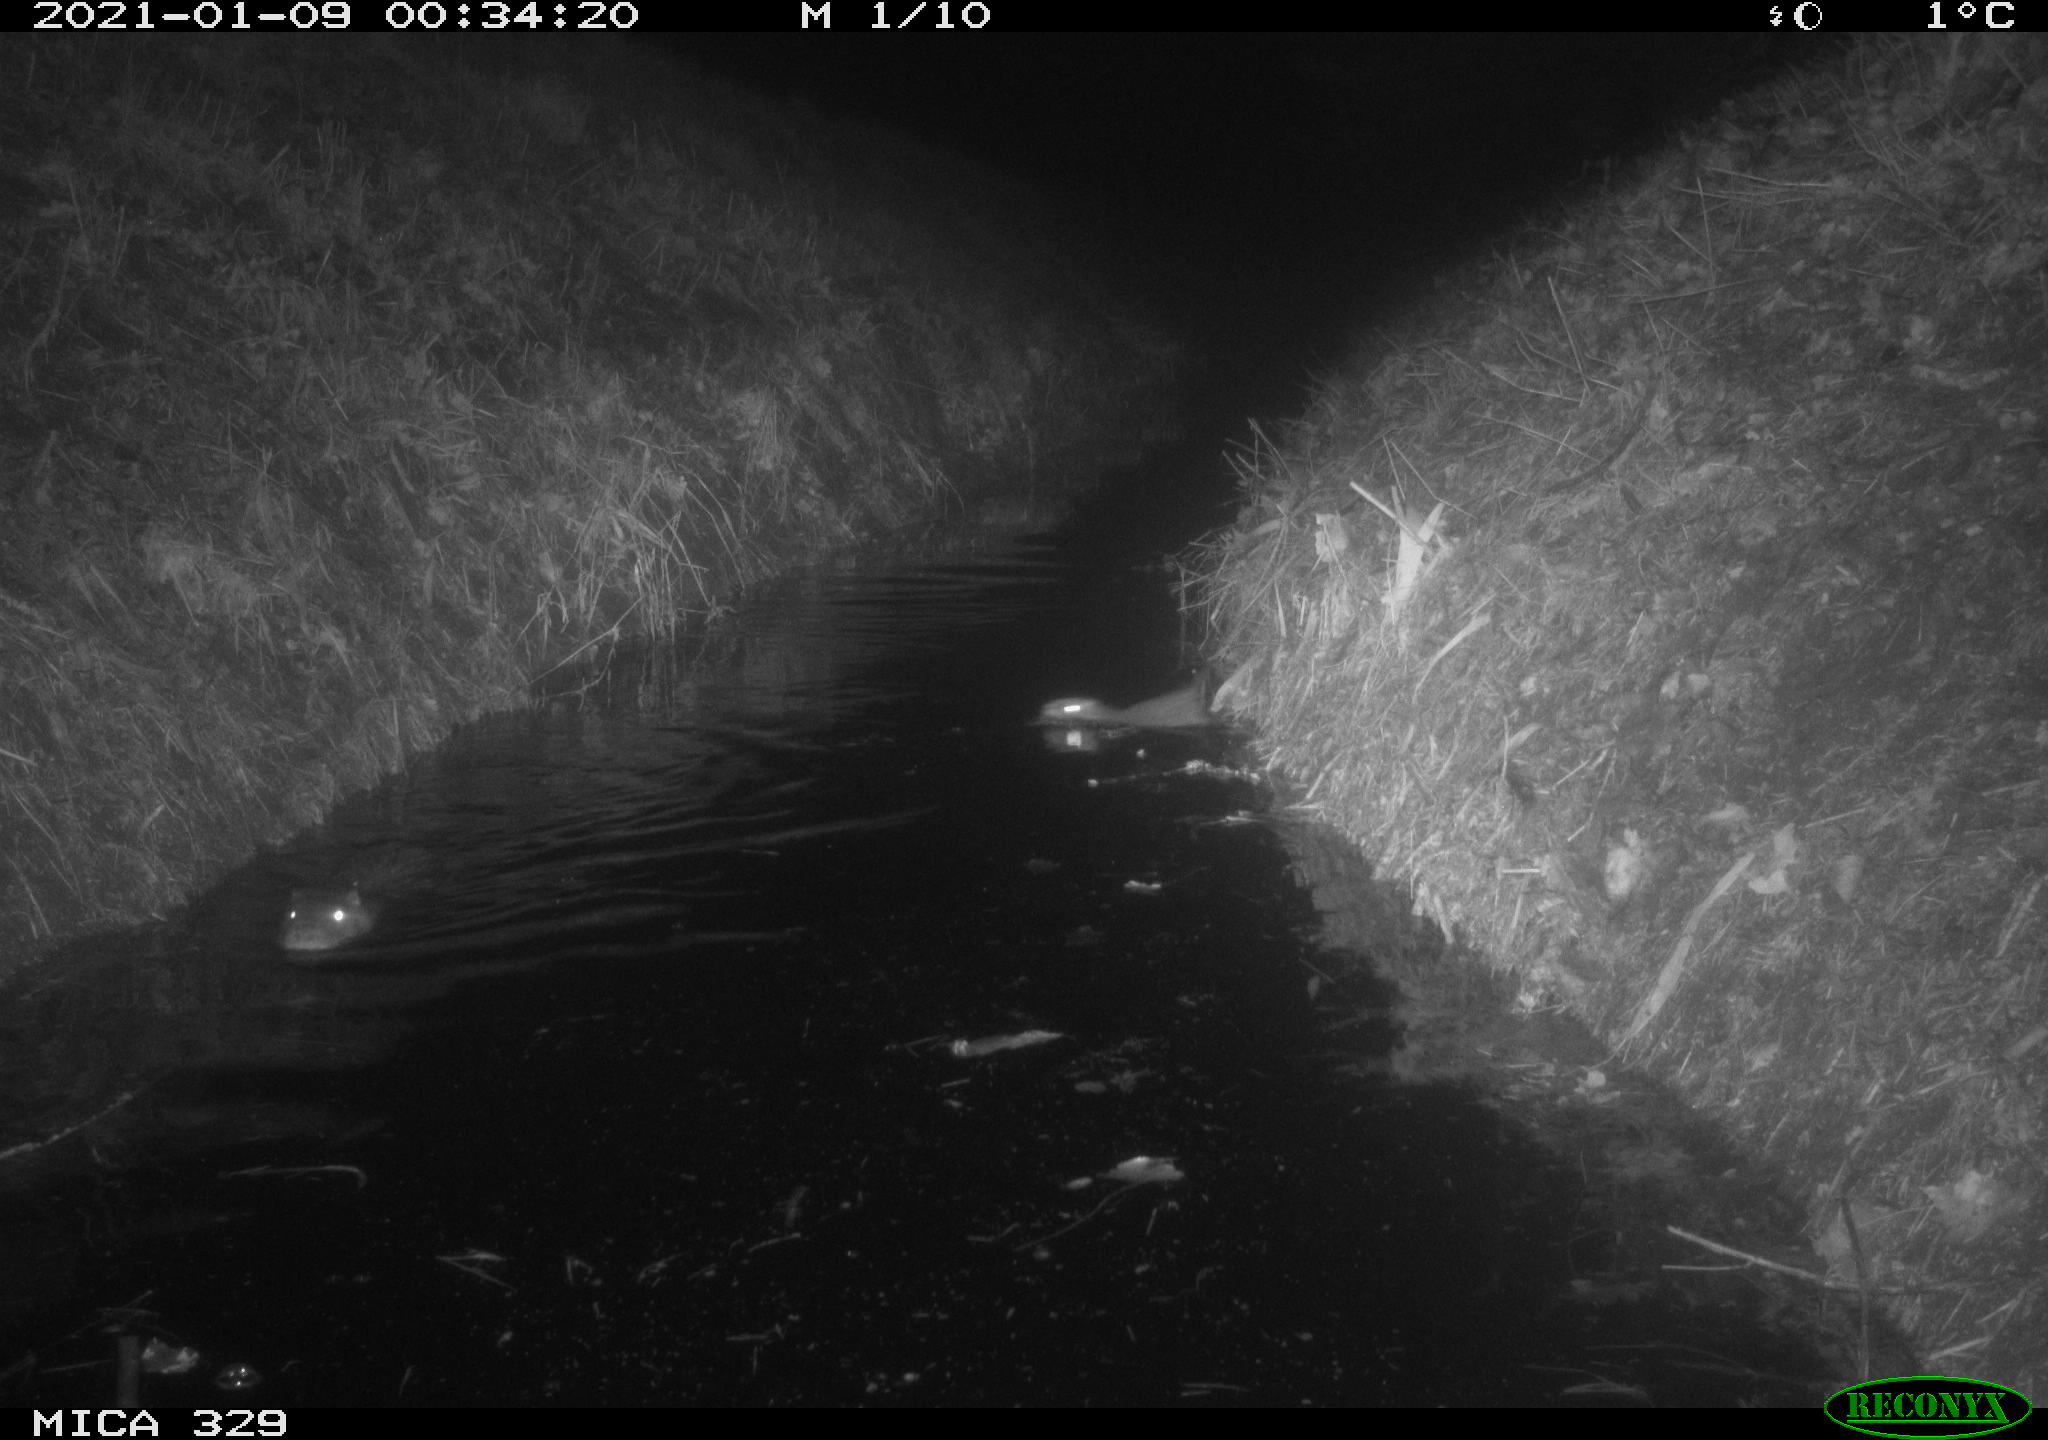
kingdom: Animalia
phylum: Chordata
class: Mammalia
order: Rodentia
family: Myocastoridae
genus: Myocastor
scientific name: Myocastor coypus
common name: Coypu
